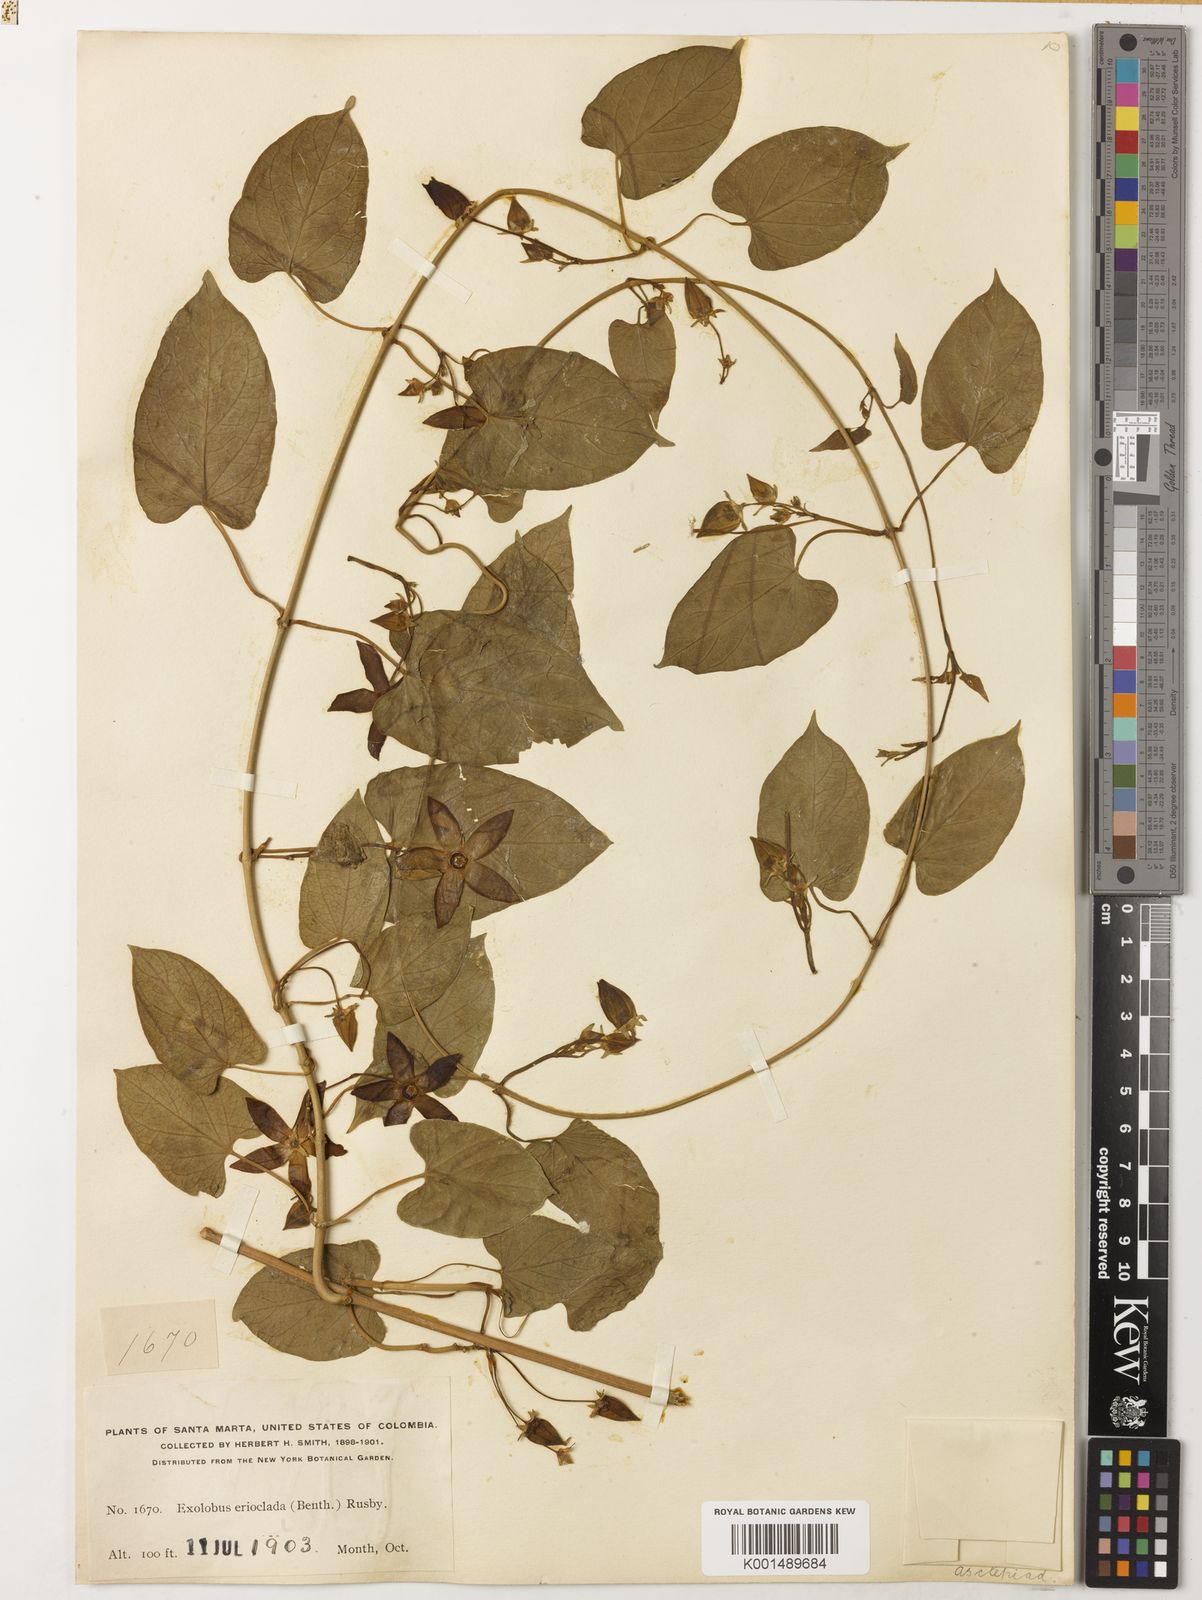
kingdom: Plantae
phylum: Tracheophyta
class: Magnoliopsida
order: Gentianales
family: Apocynaceae
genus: Gonolobus
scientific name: Gonolobus eriocladon
